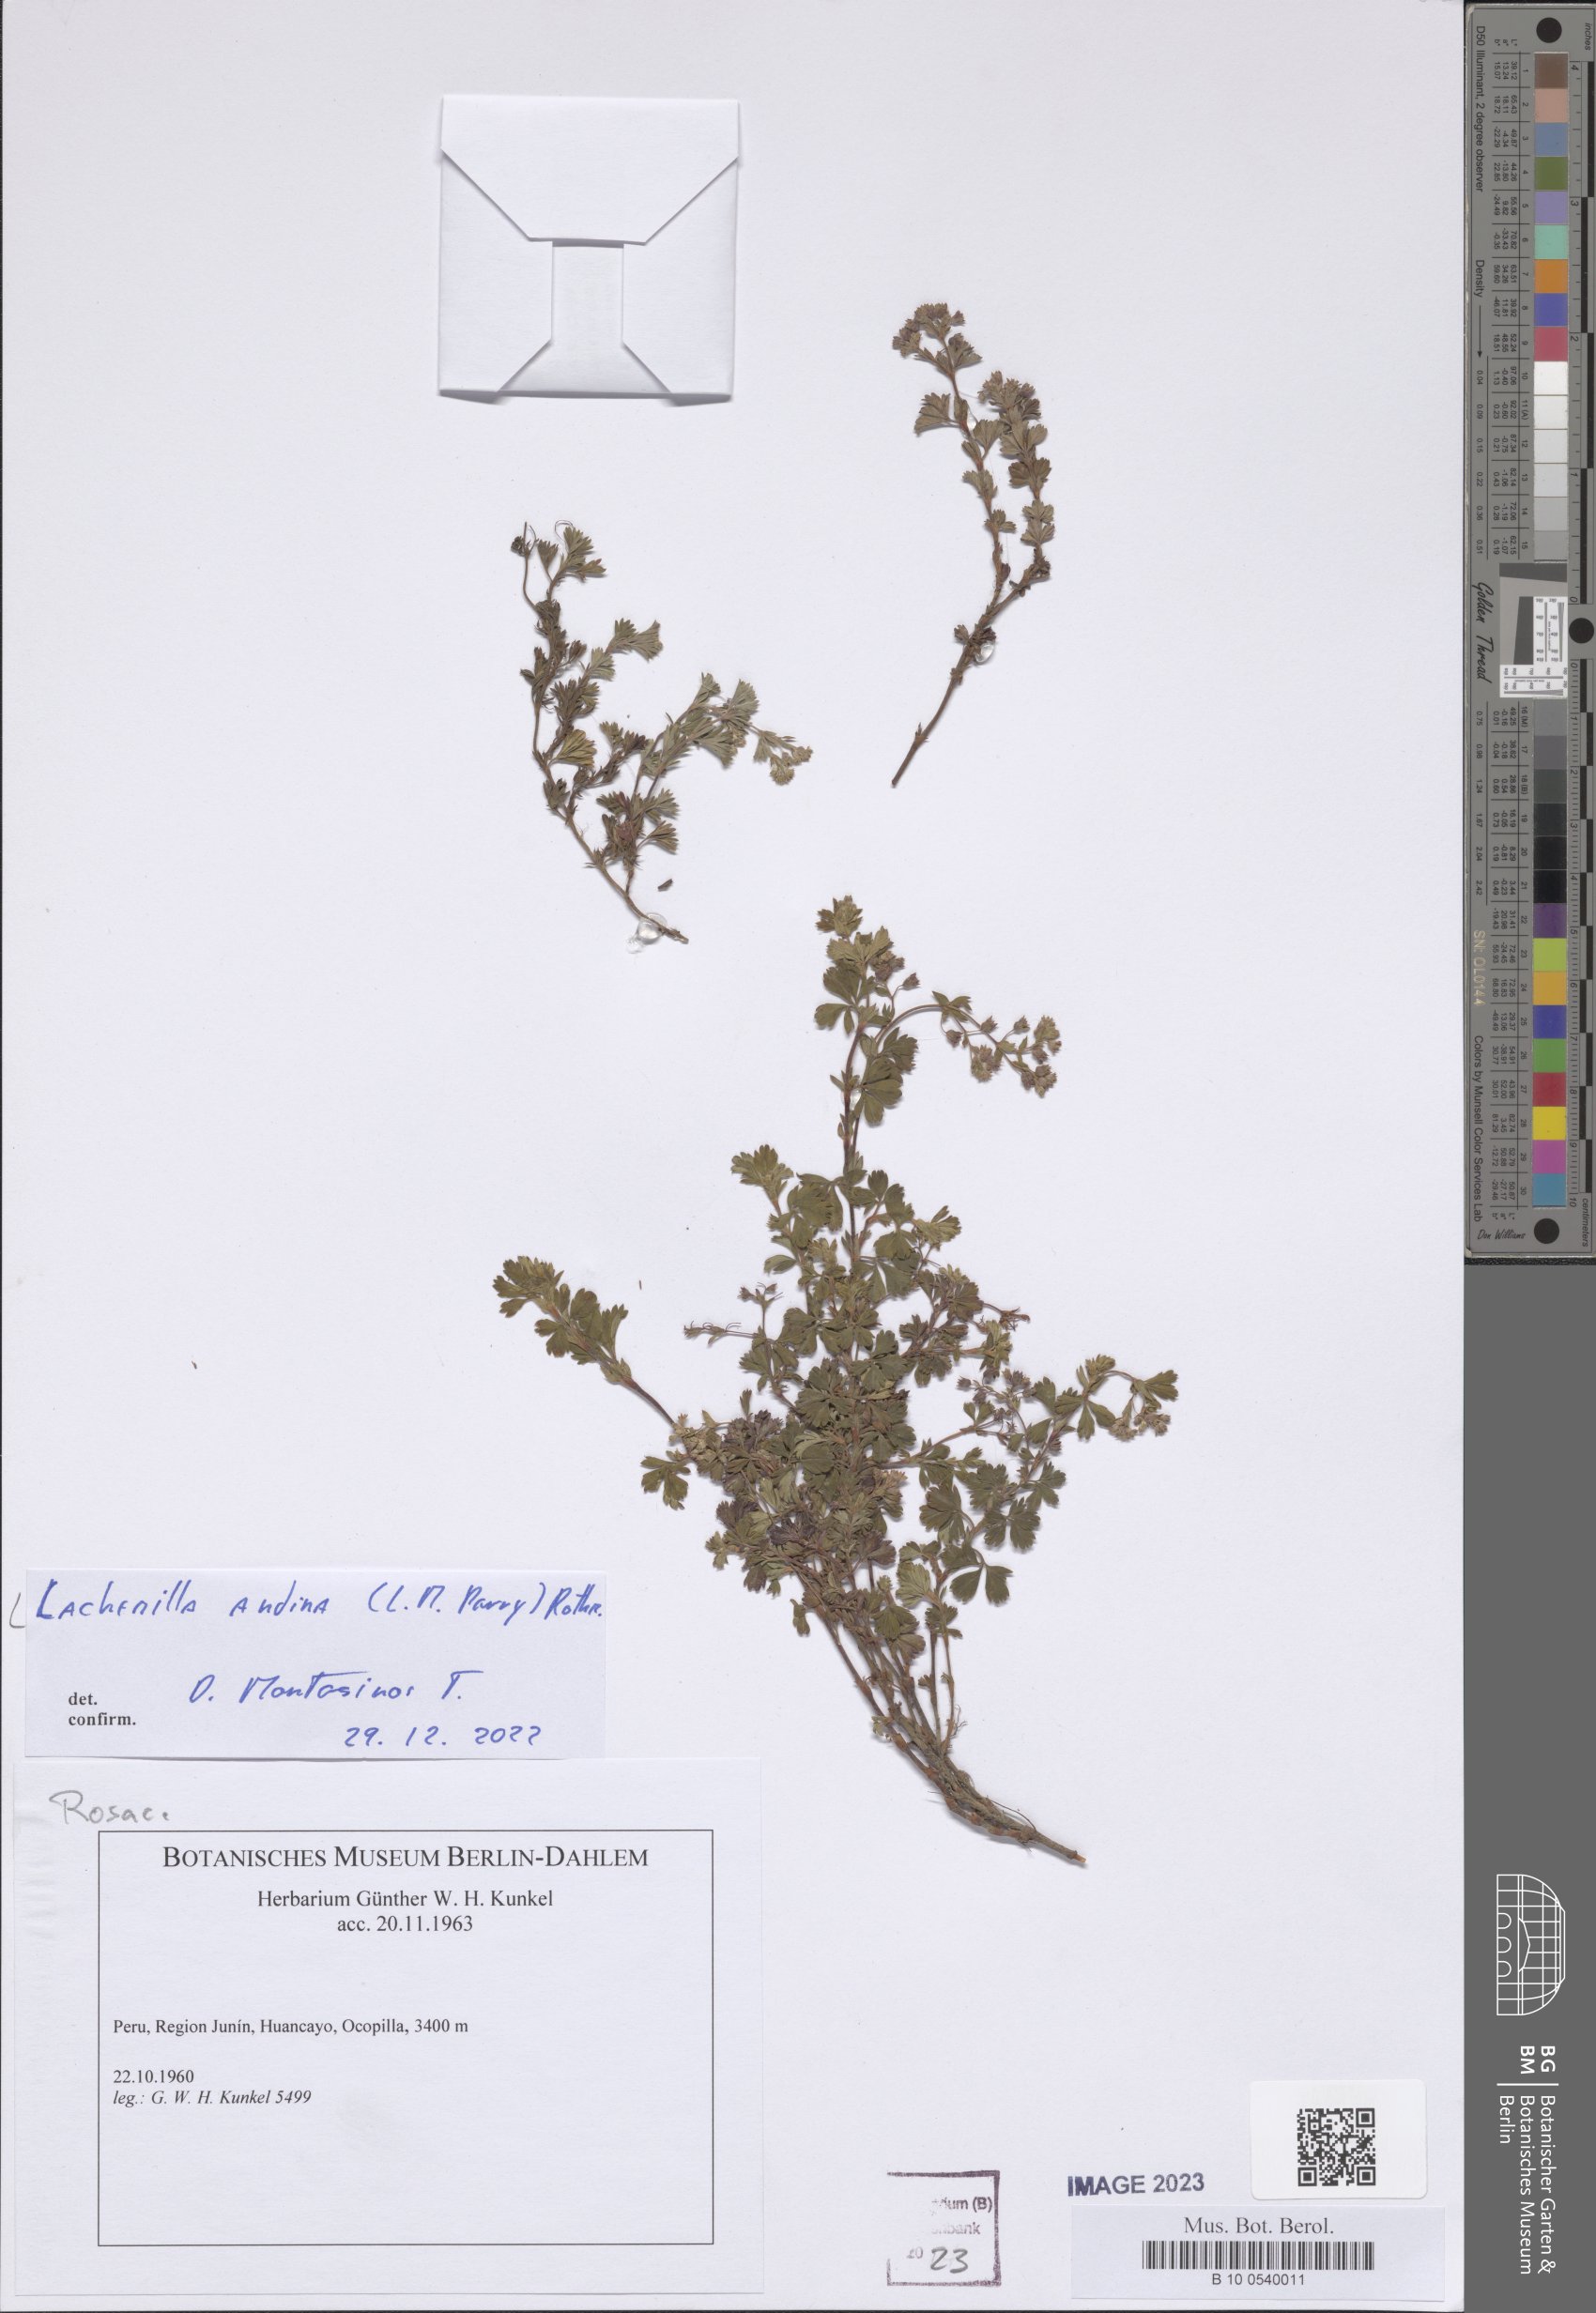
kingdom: Plantae
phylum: Tracheophyta
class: Magnoliopsida
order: Rosales
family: Rosaceae
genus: Lachemilla
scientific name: Lachemilla andina
